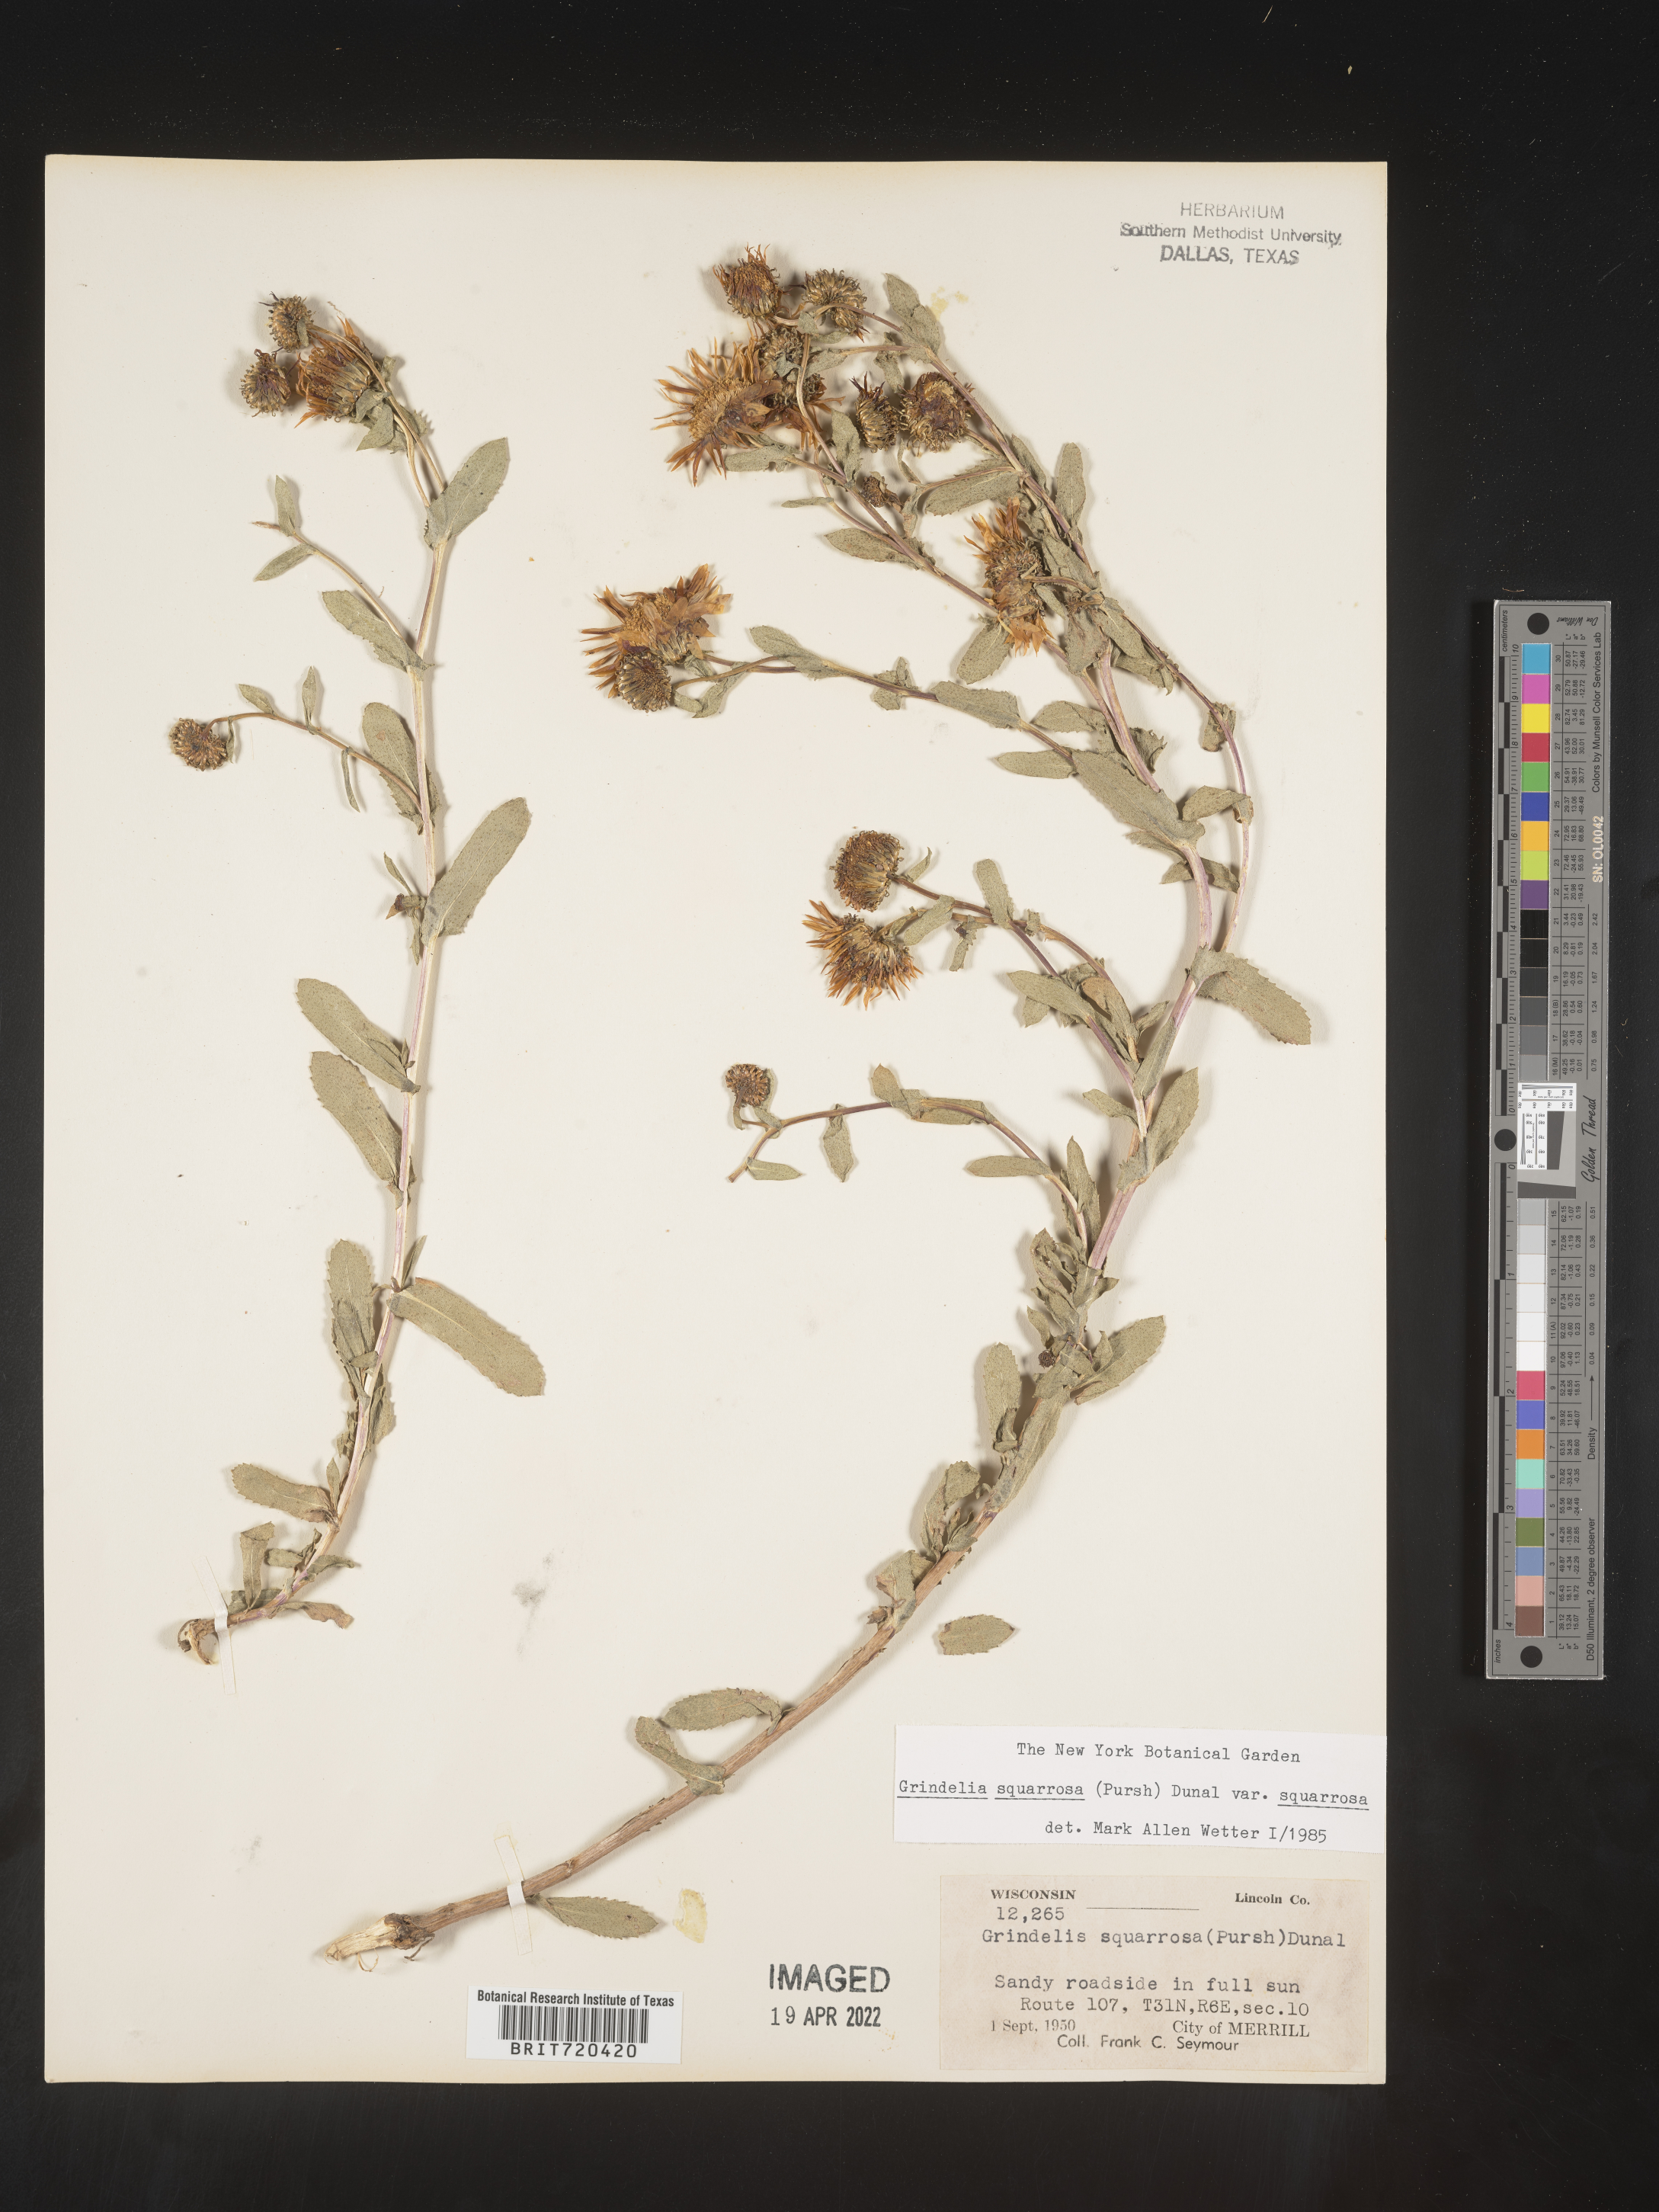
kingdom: Plantae
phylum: Tracheophyta
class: Magnoliopsida
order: Asterales
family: Asteraceae
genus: Grindelia
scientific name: Grindelia squarrosa
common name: Curly-cup gumweed
